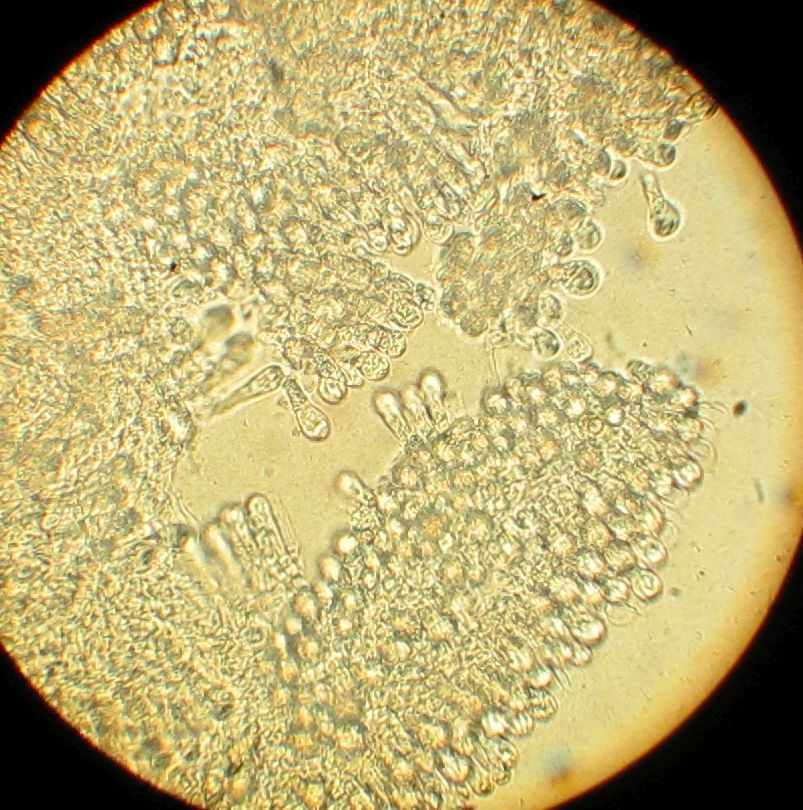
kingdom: Fungi
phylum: Basidiomycota
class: Agaricomycetes
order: Agaricales
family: Agaricaceae
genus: Macrolepiota
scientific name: Macrolepiota
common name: kæmpeparasolhat
